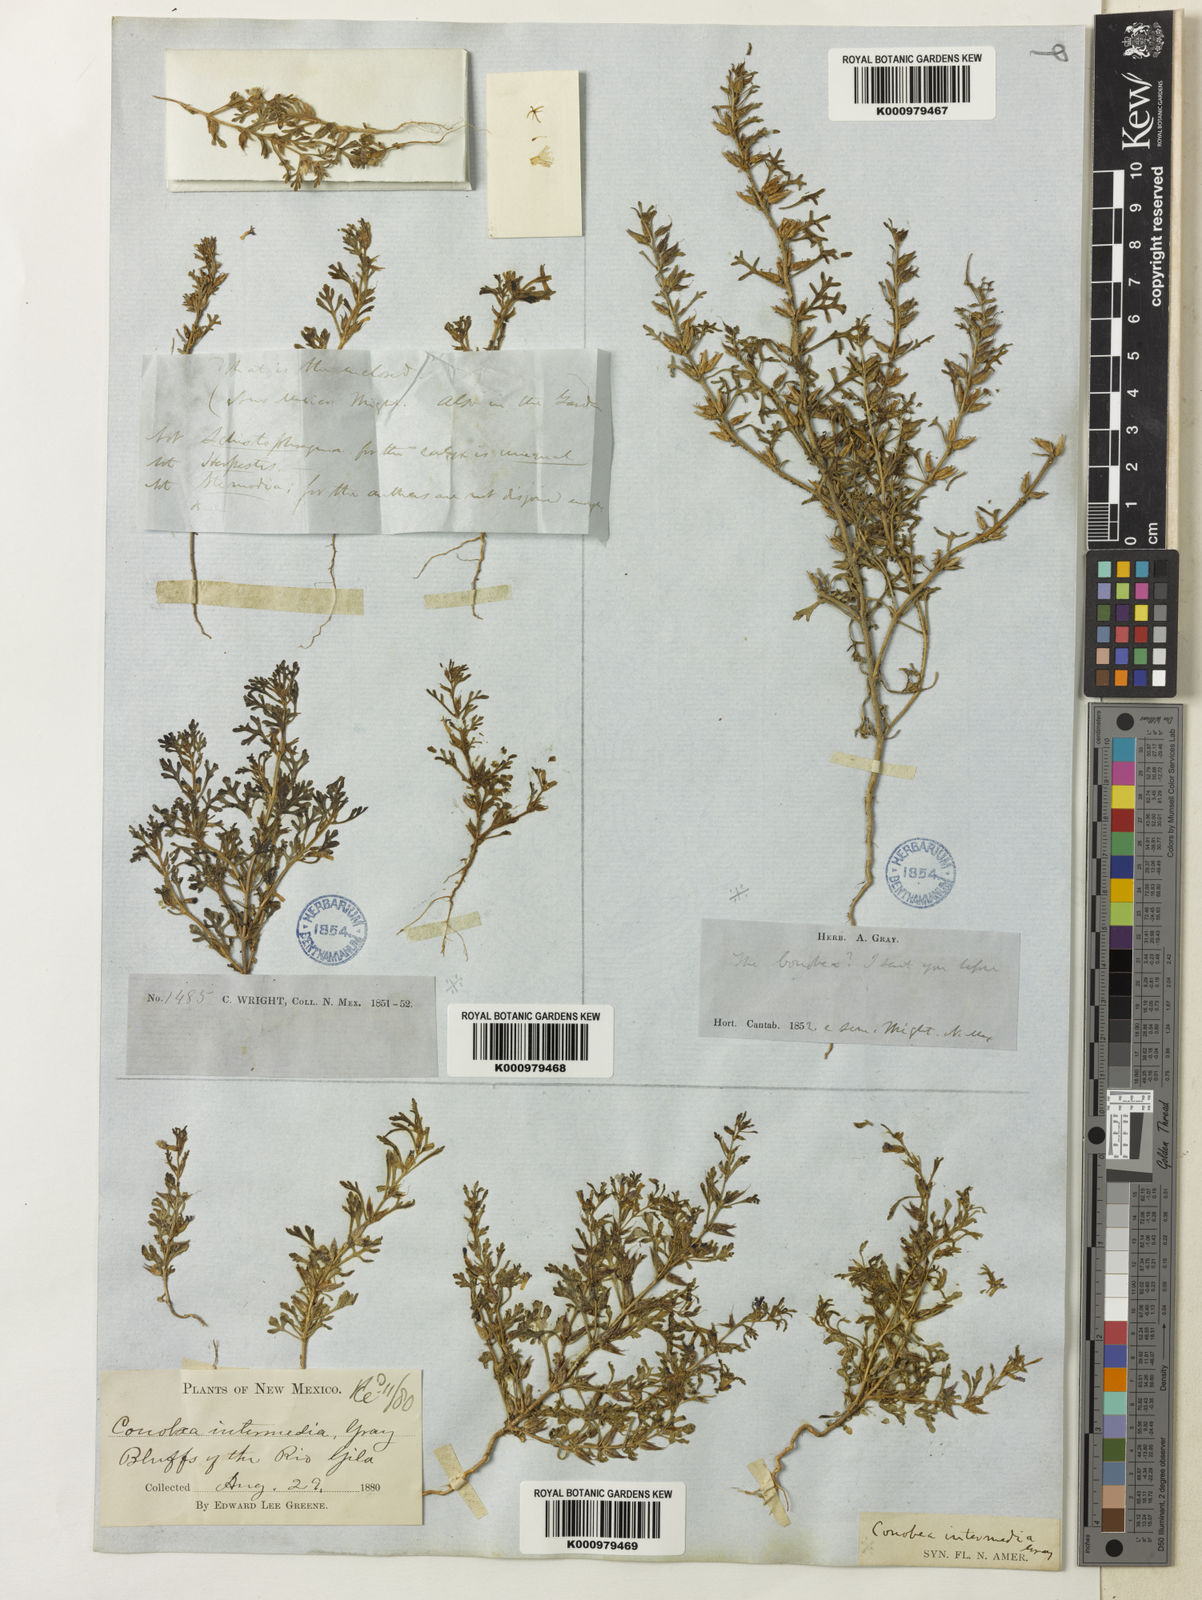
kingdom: Plantae
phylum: Tracheophyta
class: Magnoliopsida
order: Lamiales
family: Plantaginaceae
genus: Schistophragma
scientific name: Schistophragma intermedium
